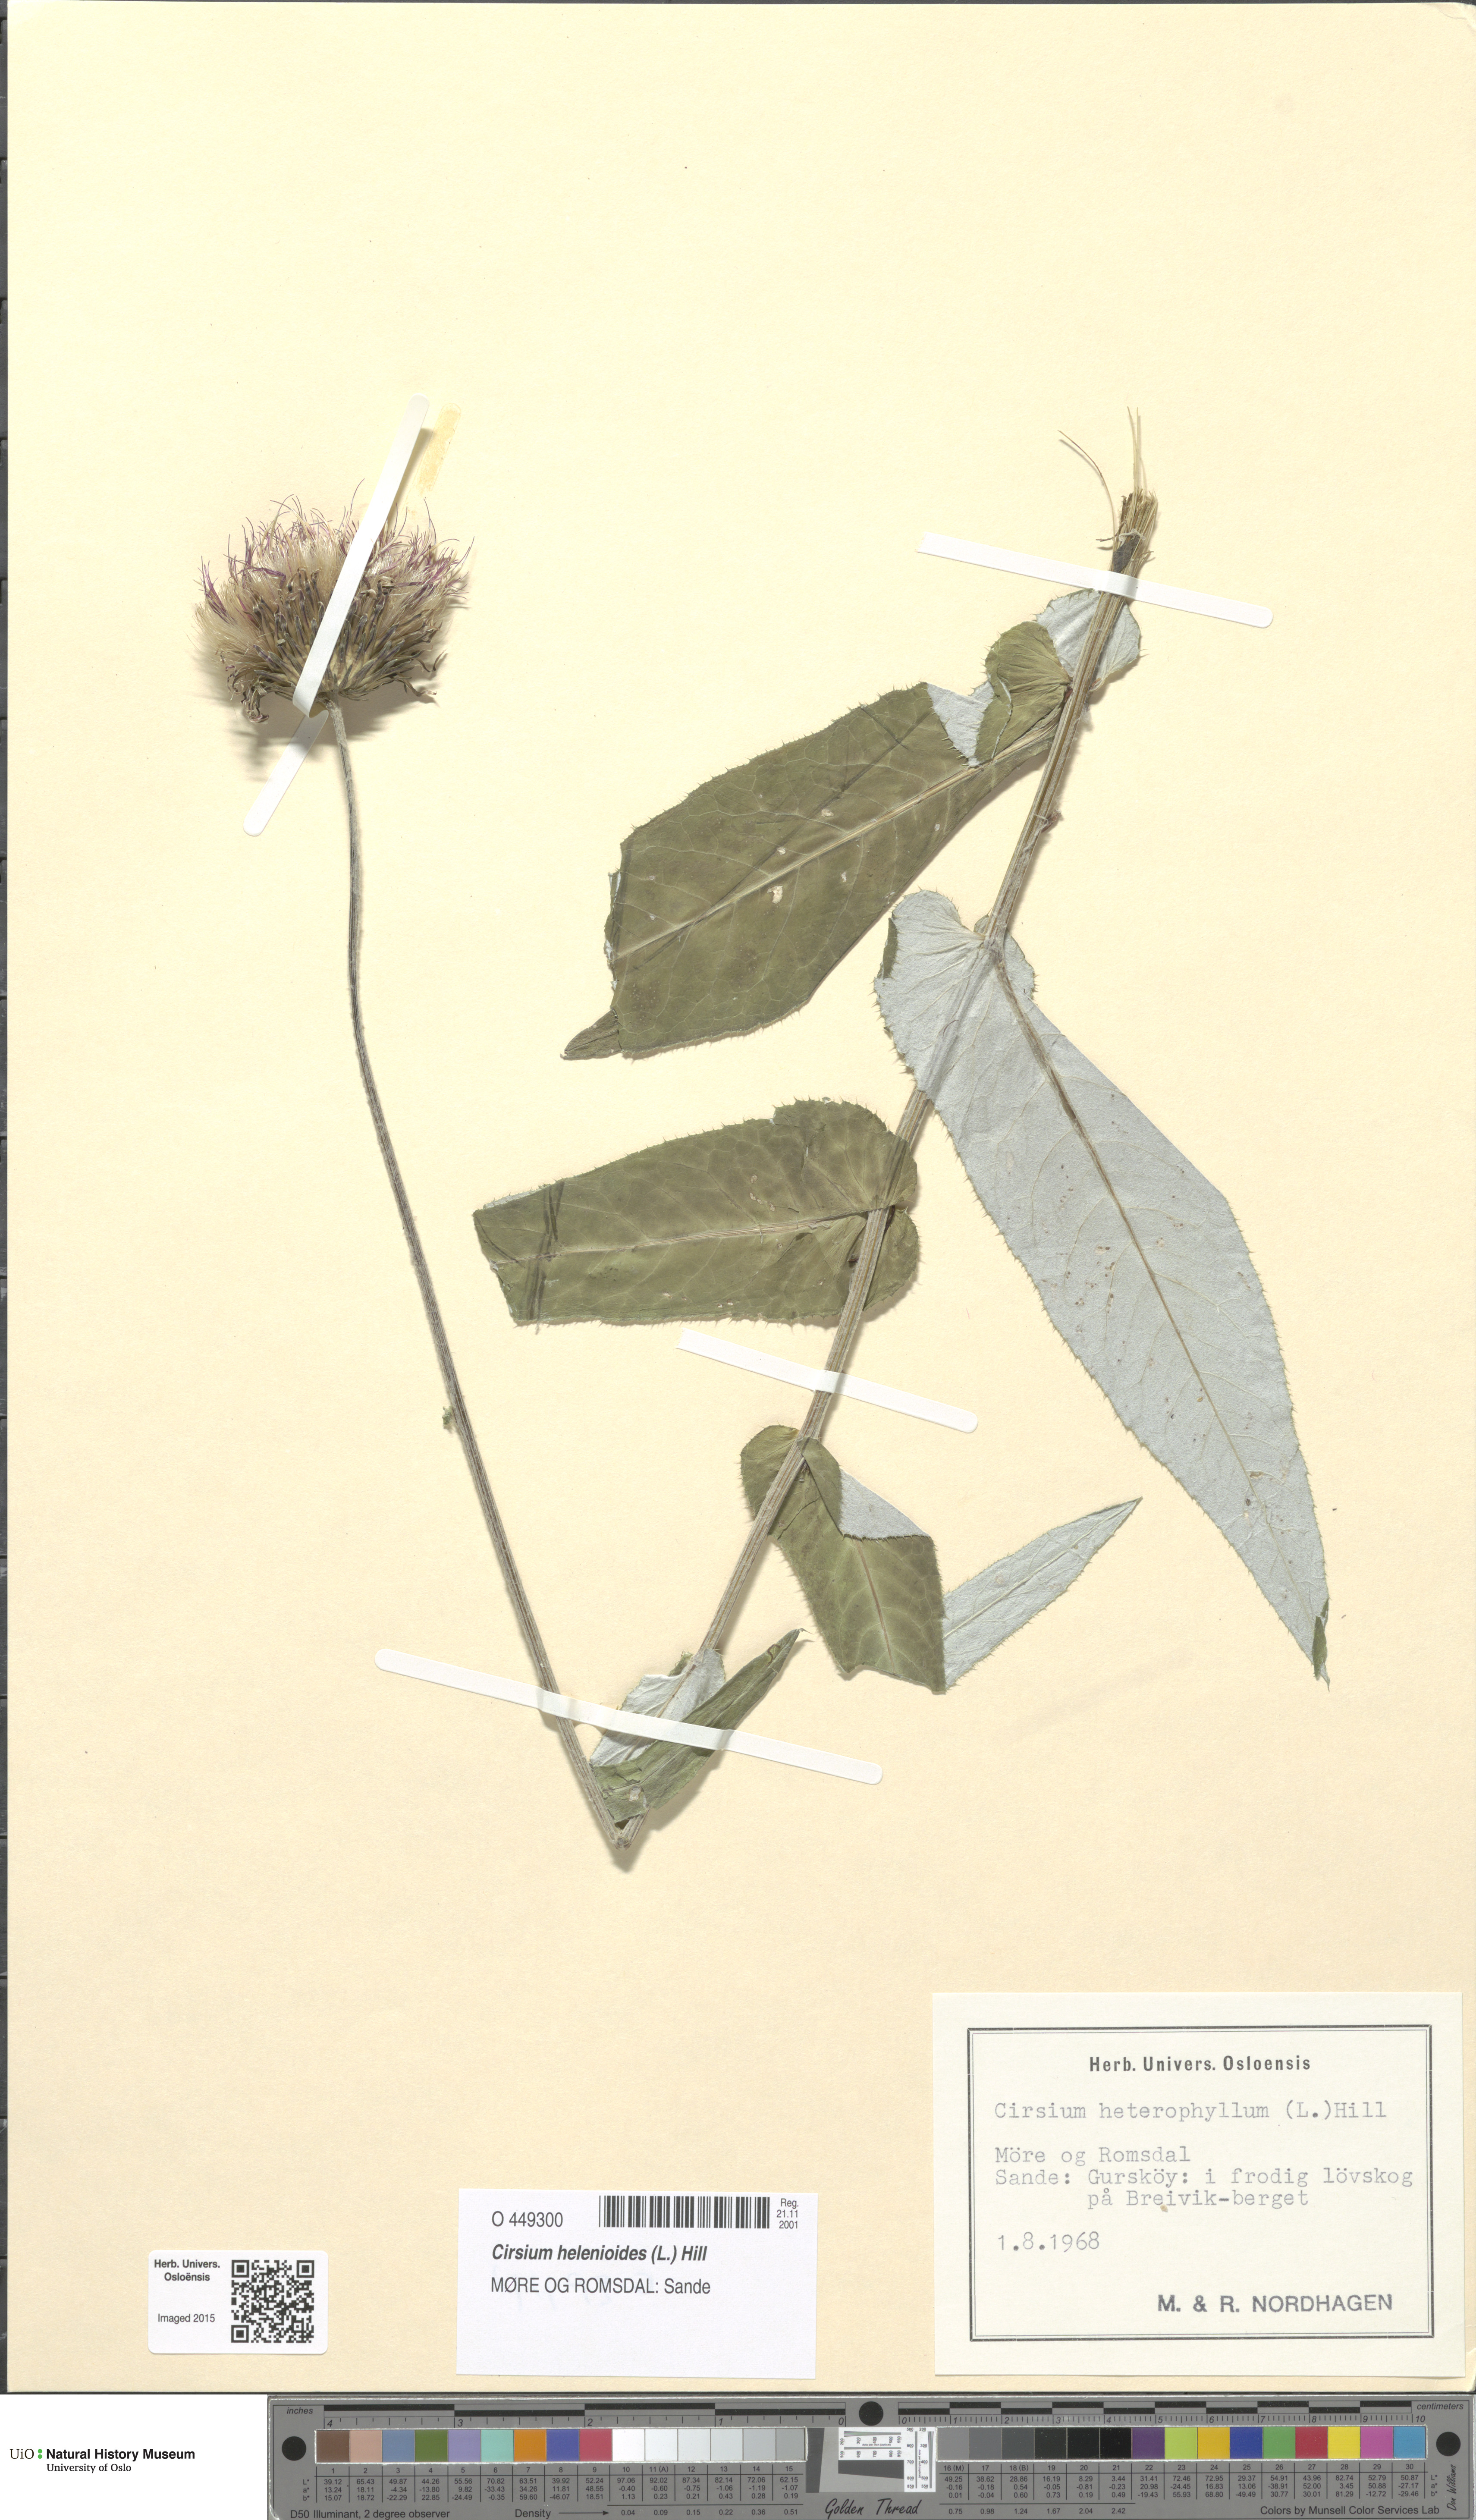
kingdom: Plantae
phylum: Tracheophyta
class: Magnoliopsida
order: Asterales
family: Asteraceae
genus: Cirsium
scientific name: Cirsium heterophyllum
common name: Melancholy thistle
